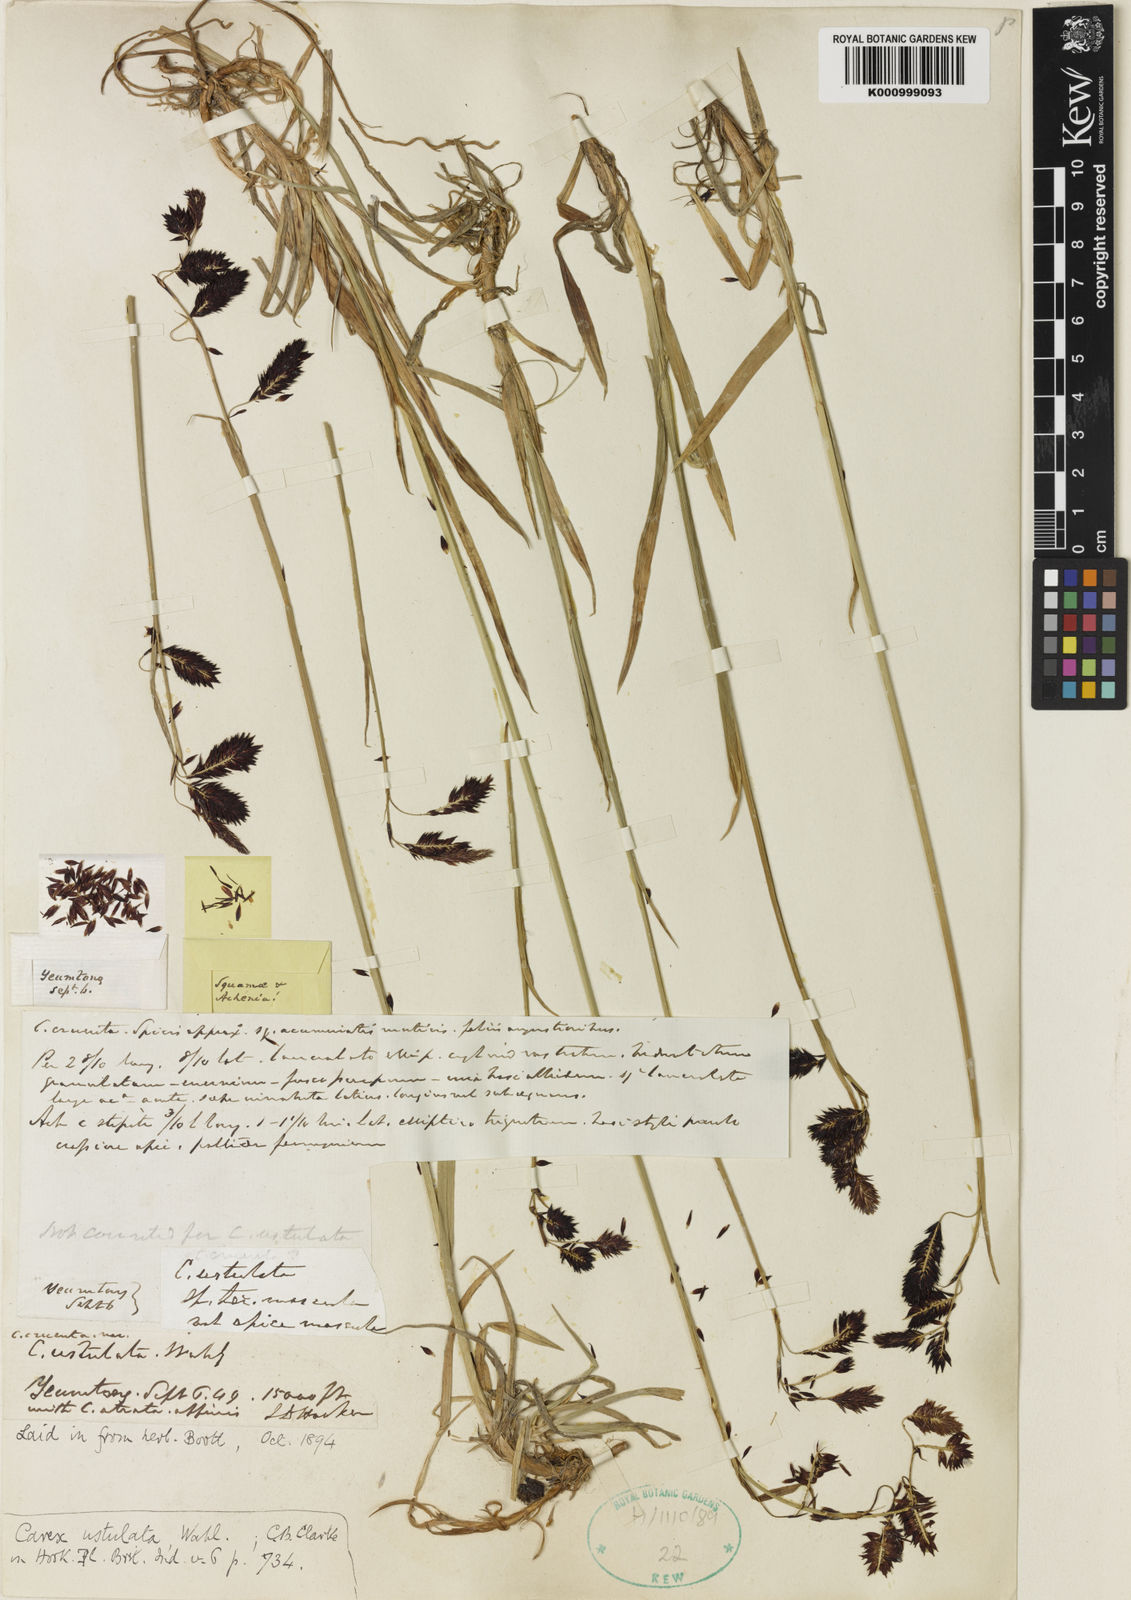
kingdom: Plantae
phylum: Tracheophyta
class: Liliopsida
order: Poales
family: Cyperaceae
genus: Carex
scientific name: Carex atrofusca
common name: Scorched alpine-sedge
